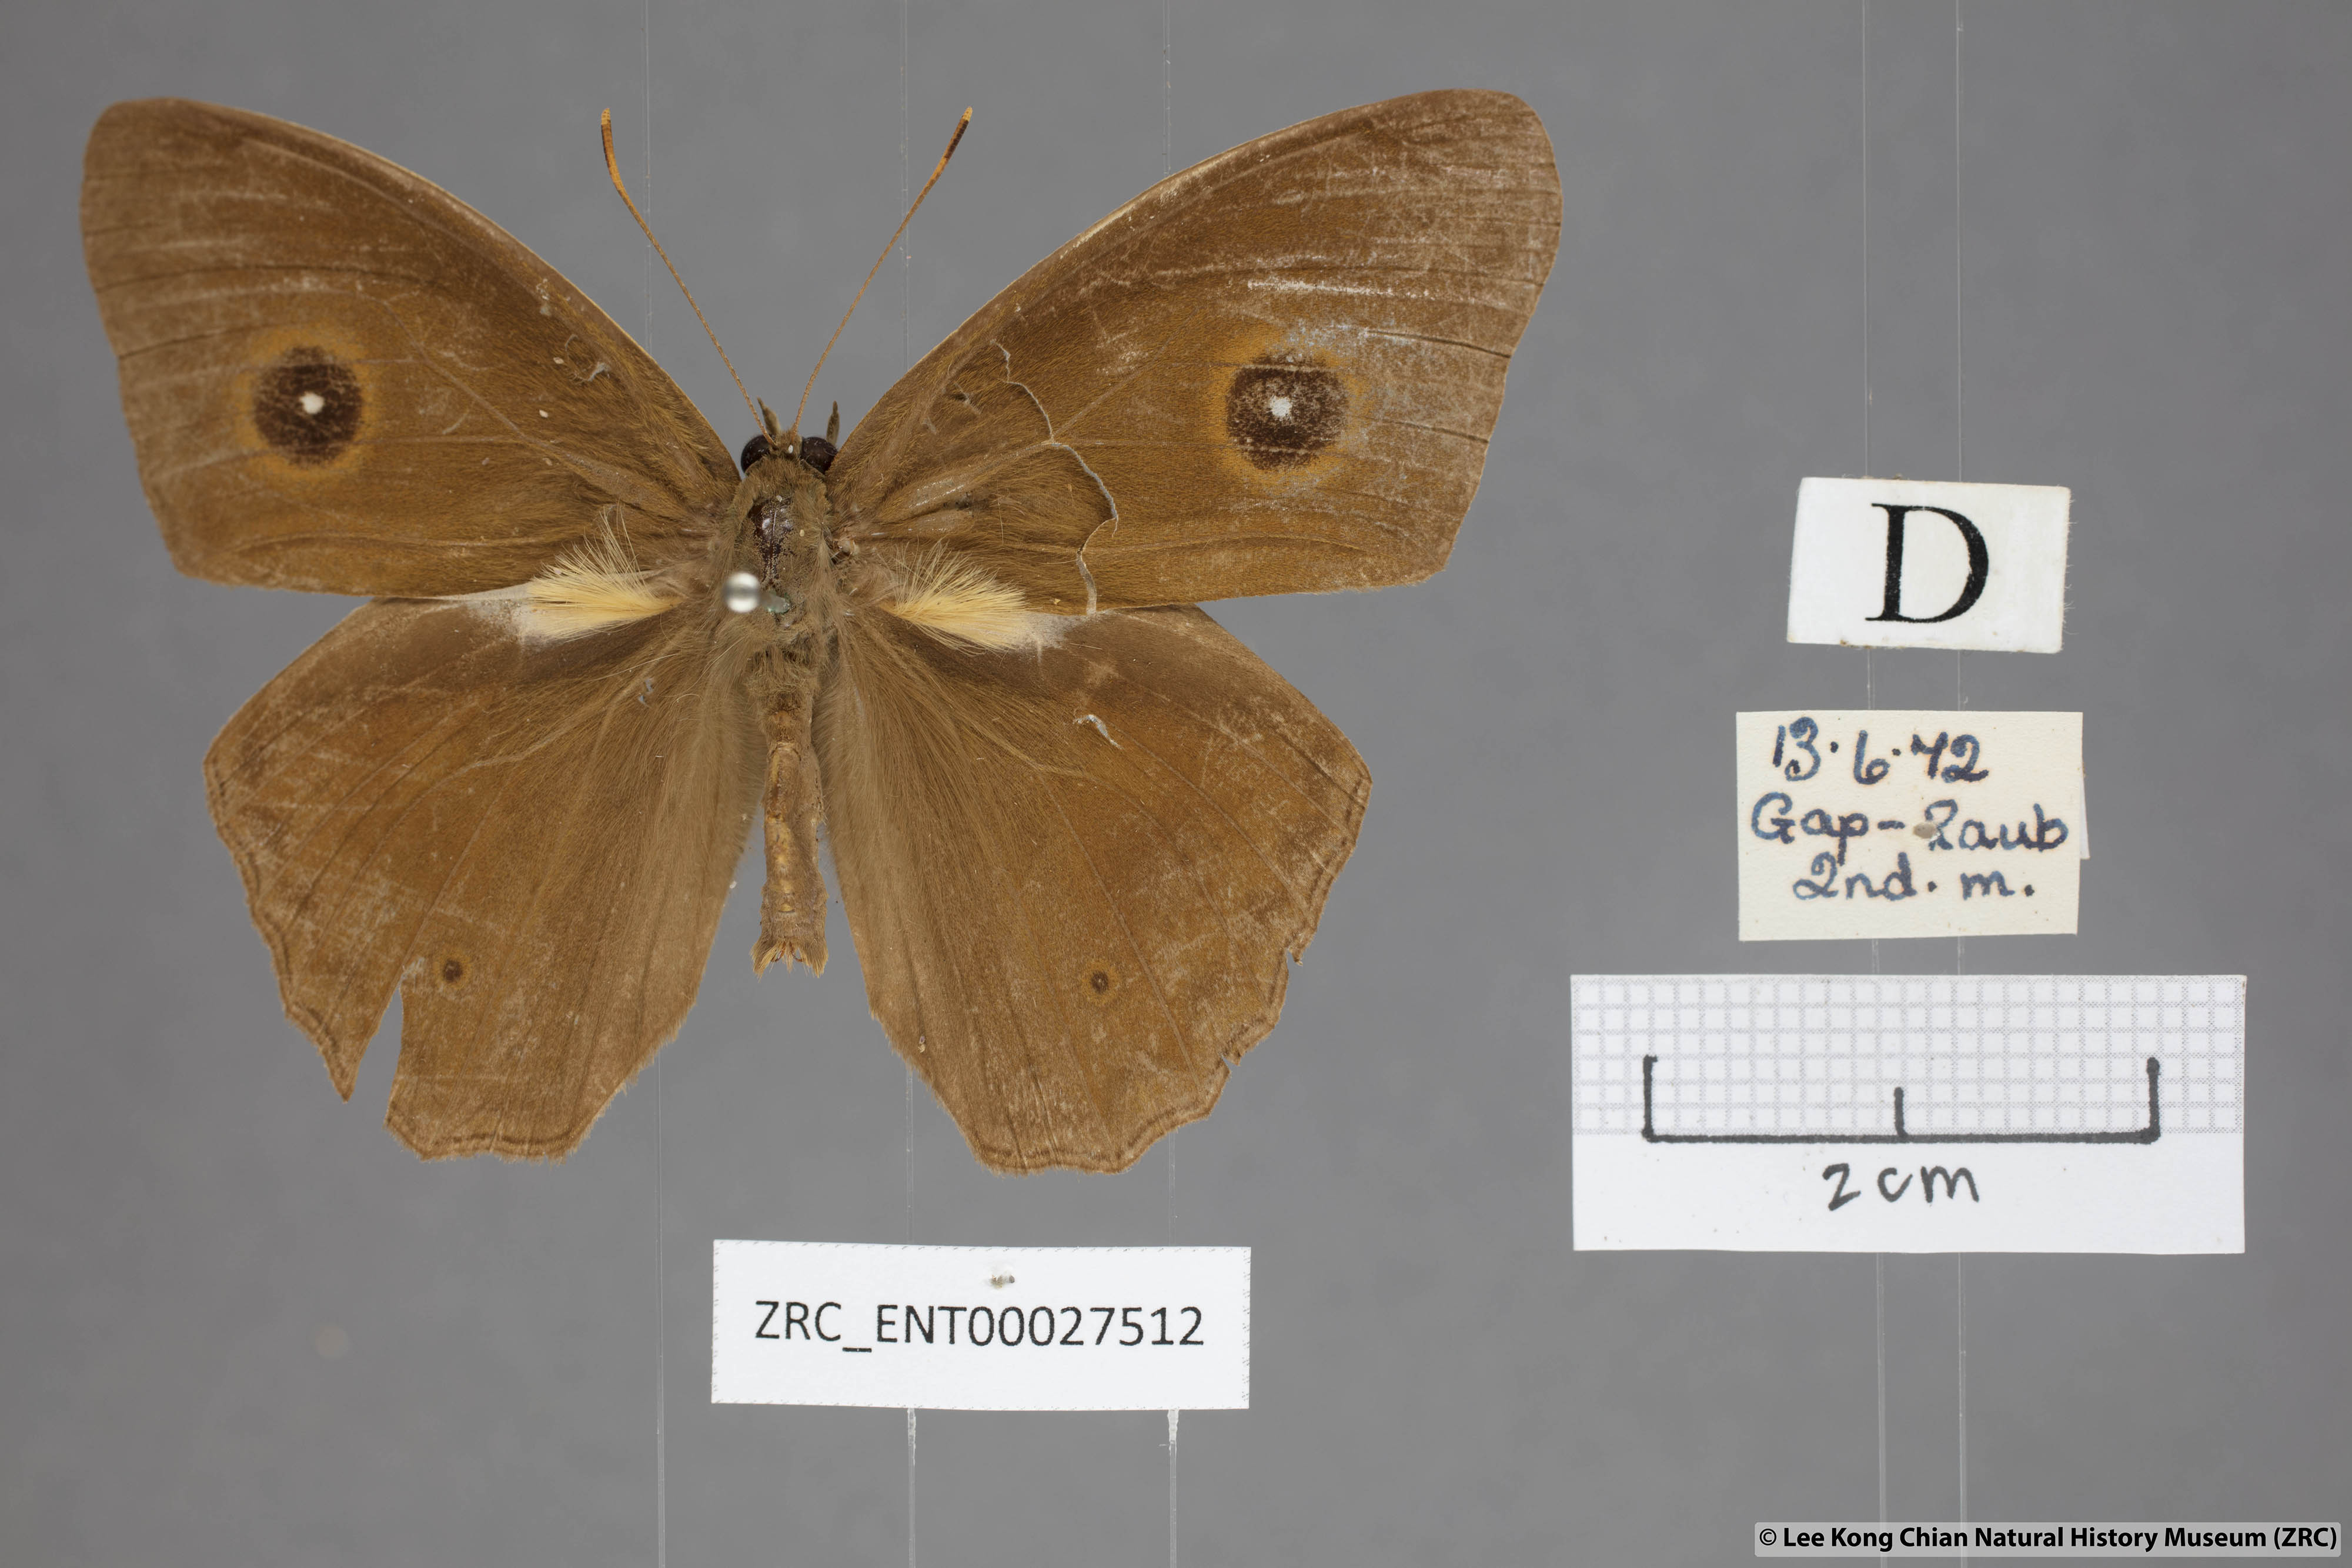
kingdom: Animalia
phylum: Arthropoda
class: Insecta
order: Lepidoptera
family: Nymphalidae
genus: Mycalesis
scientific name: Mycalesis mnasicles
